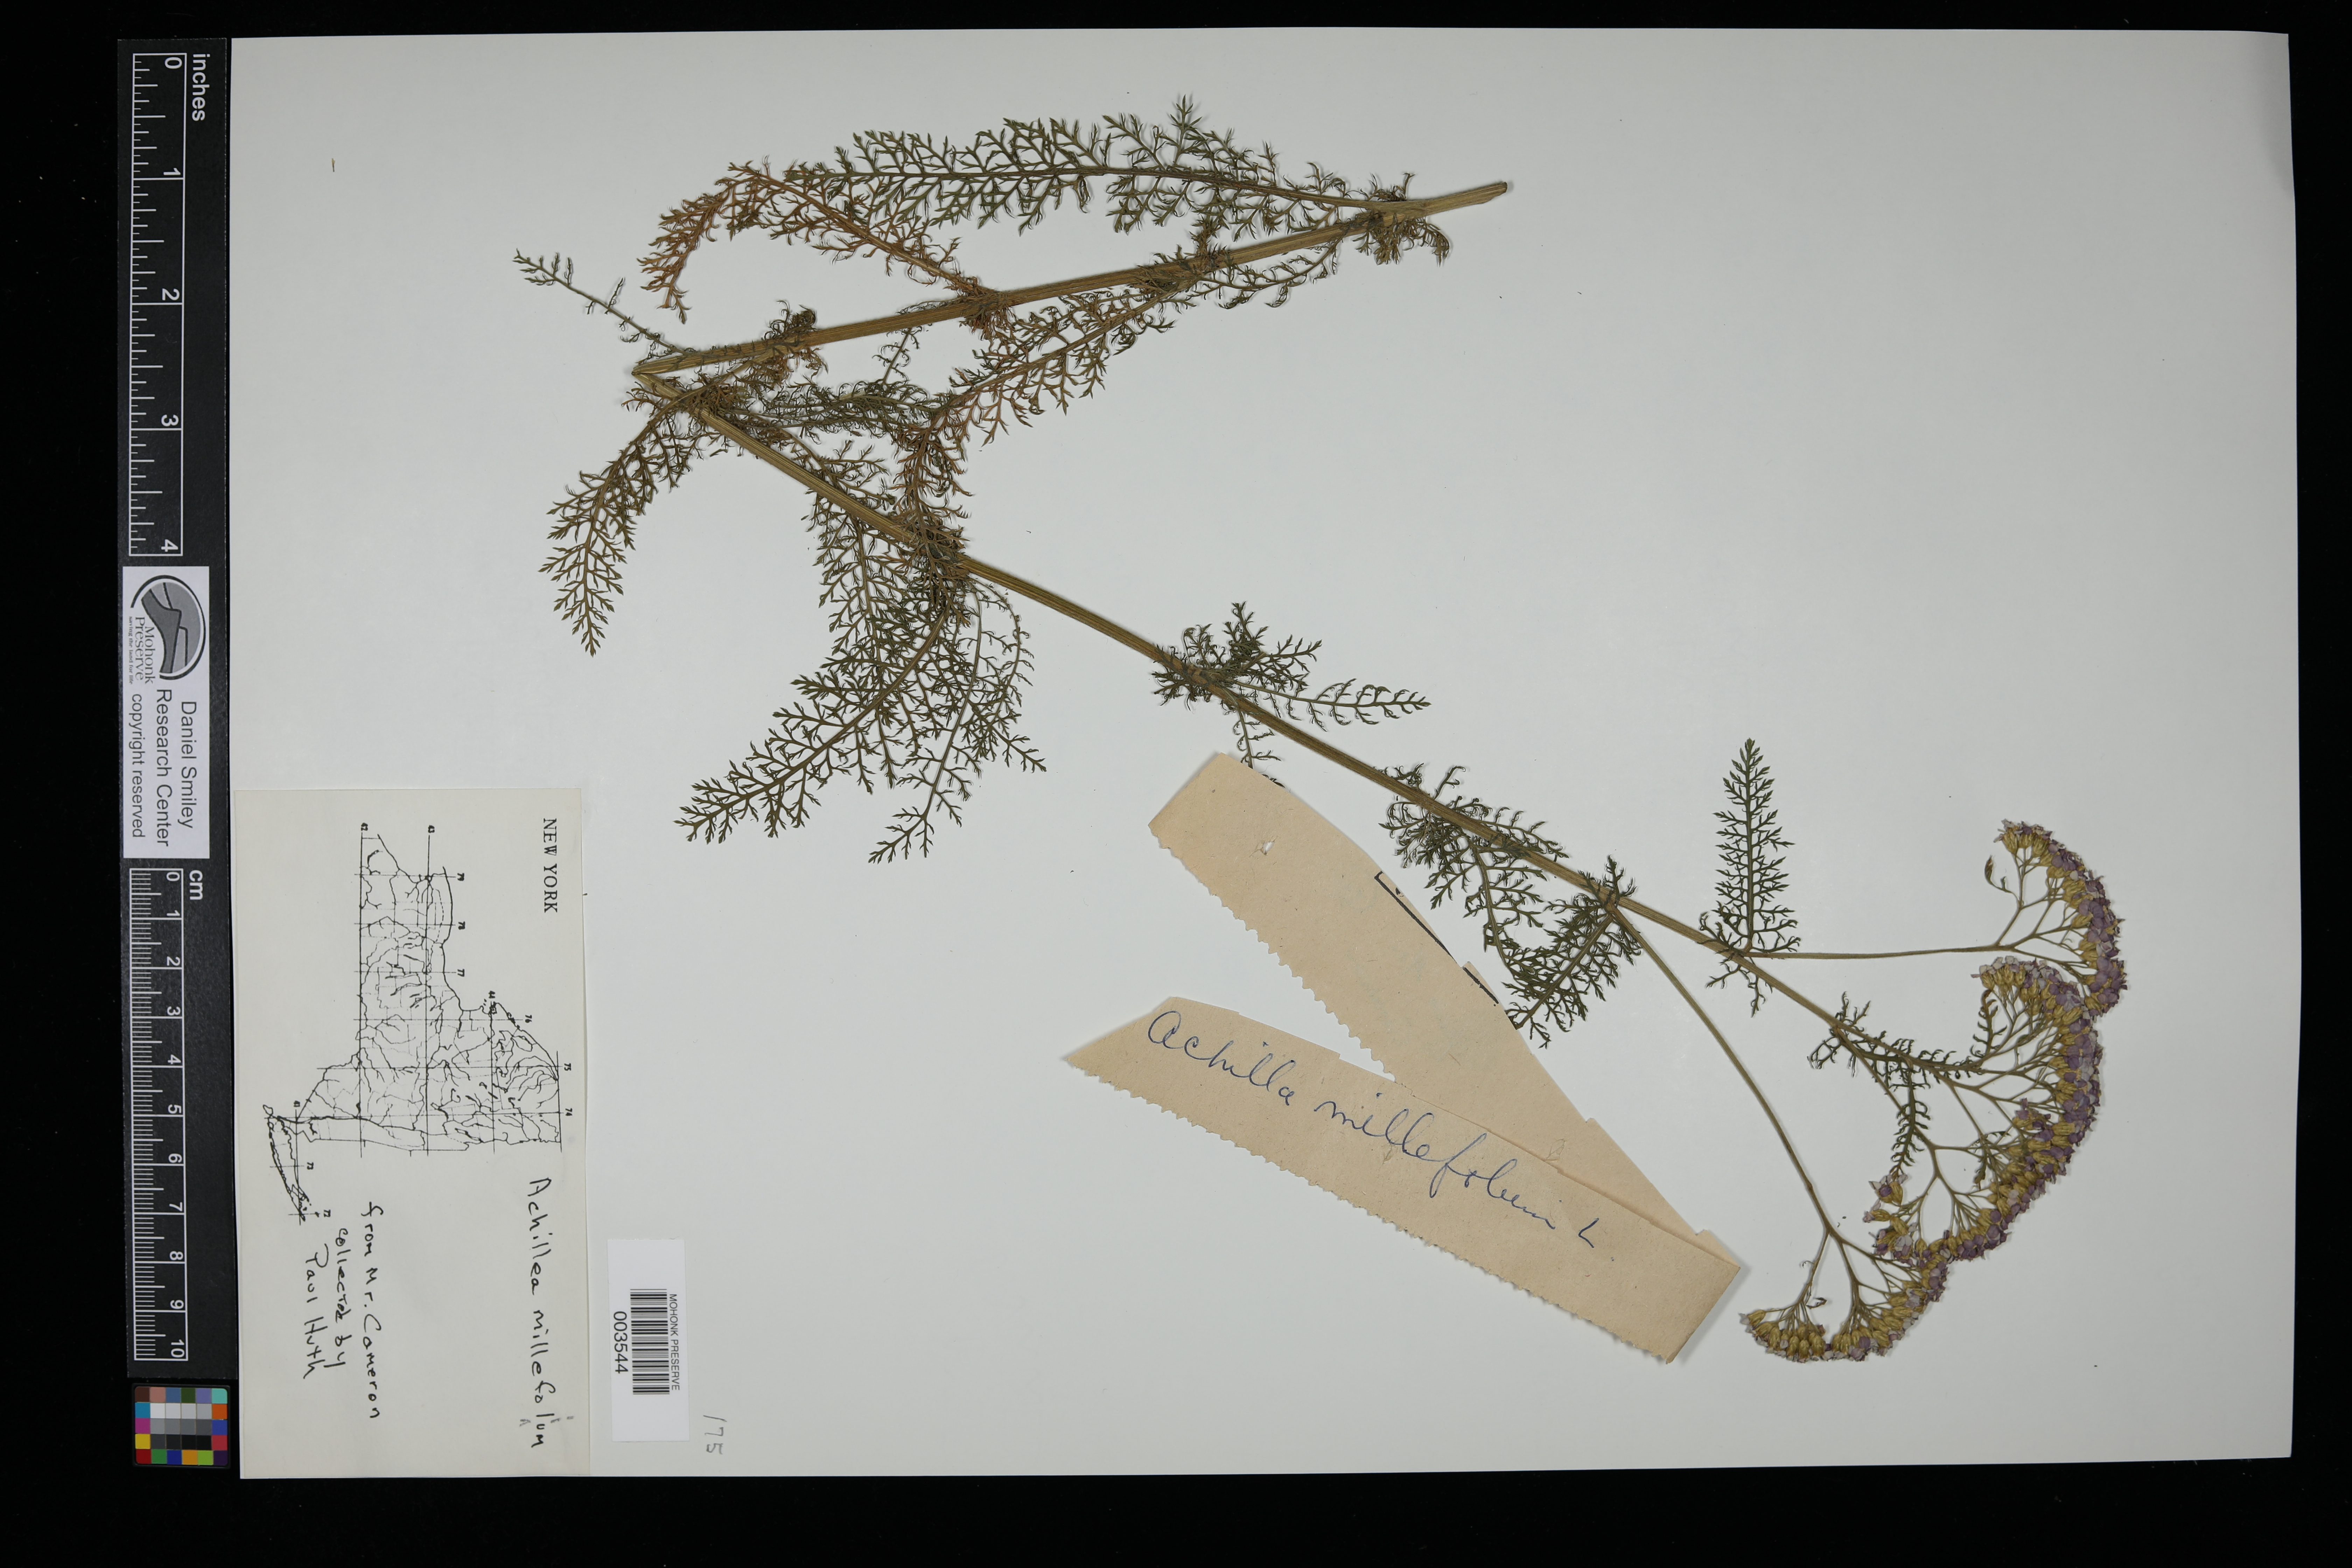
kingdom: Plantae
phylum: Tracheophyta
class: Magnoliopsida
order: Asterales
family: Asteraceae
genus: Achillea
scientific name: Achillea millefolium
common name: Yarrow
